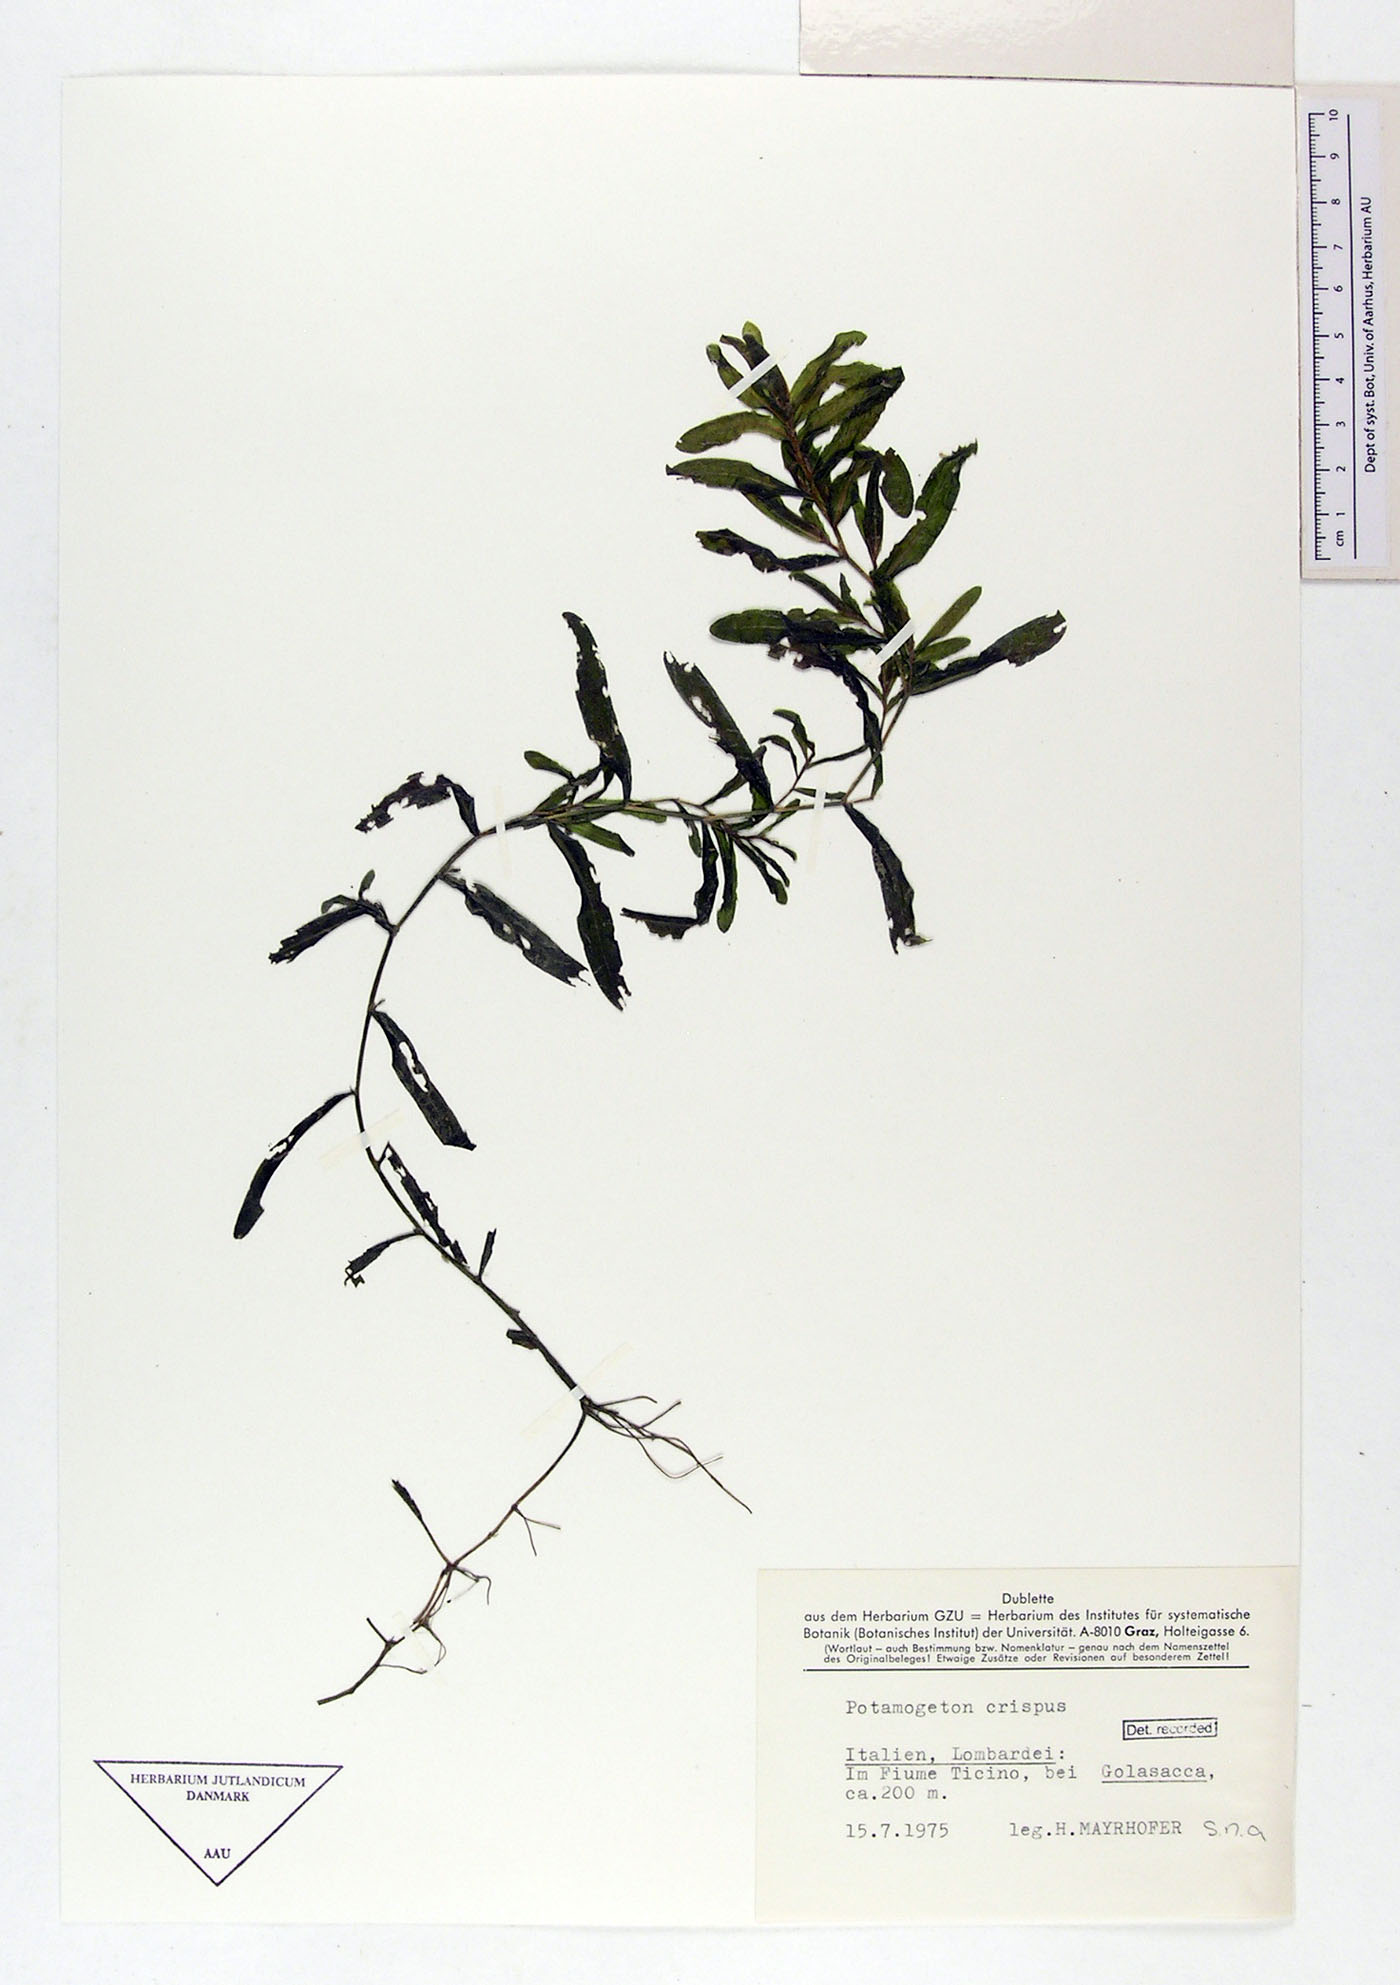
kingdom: Plantae
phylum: Tracheophyta
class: Liliopsida
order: Alismatales
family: Potamogetonaceae
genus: Potamogeton
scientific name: Potamogeton crispus
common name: Curled pondweed
